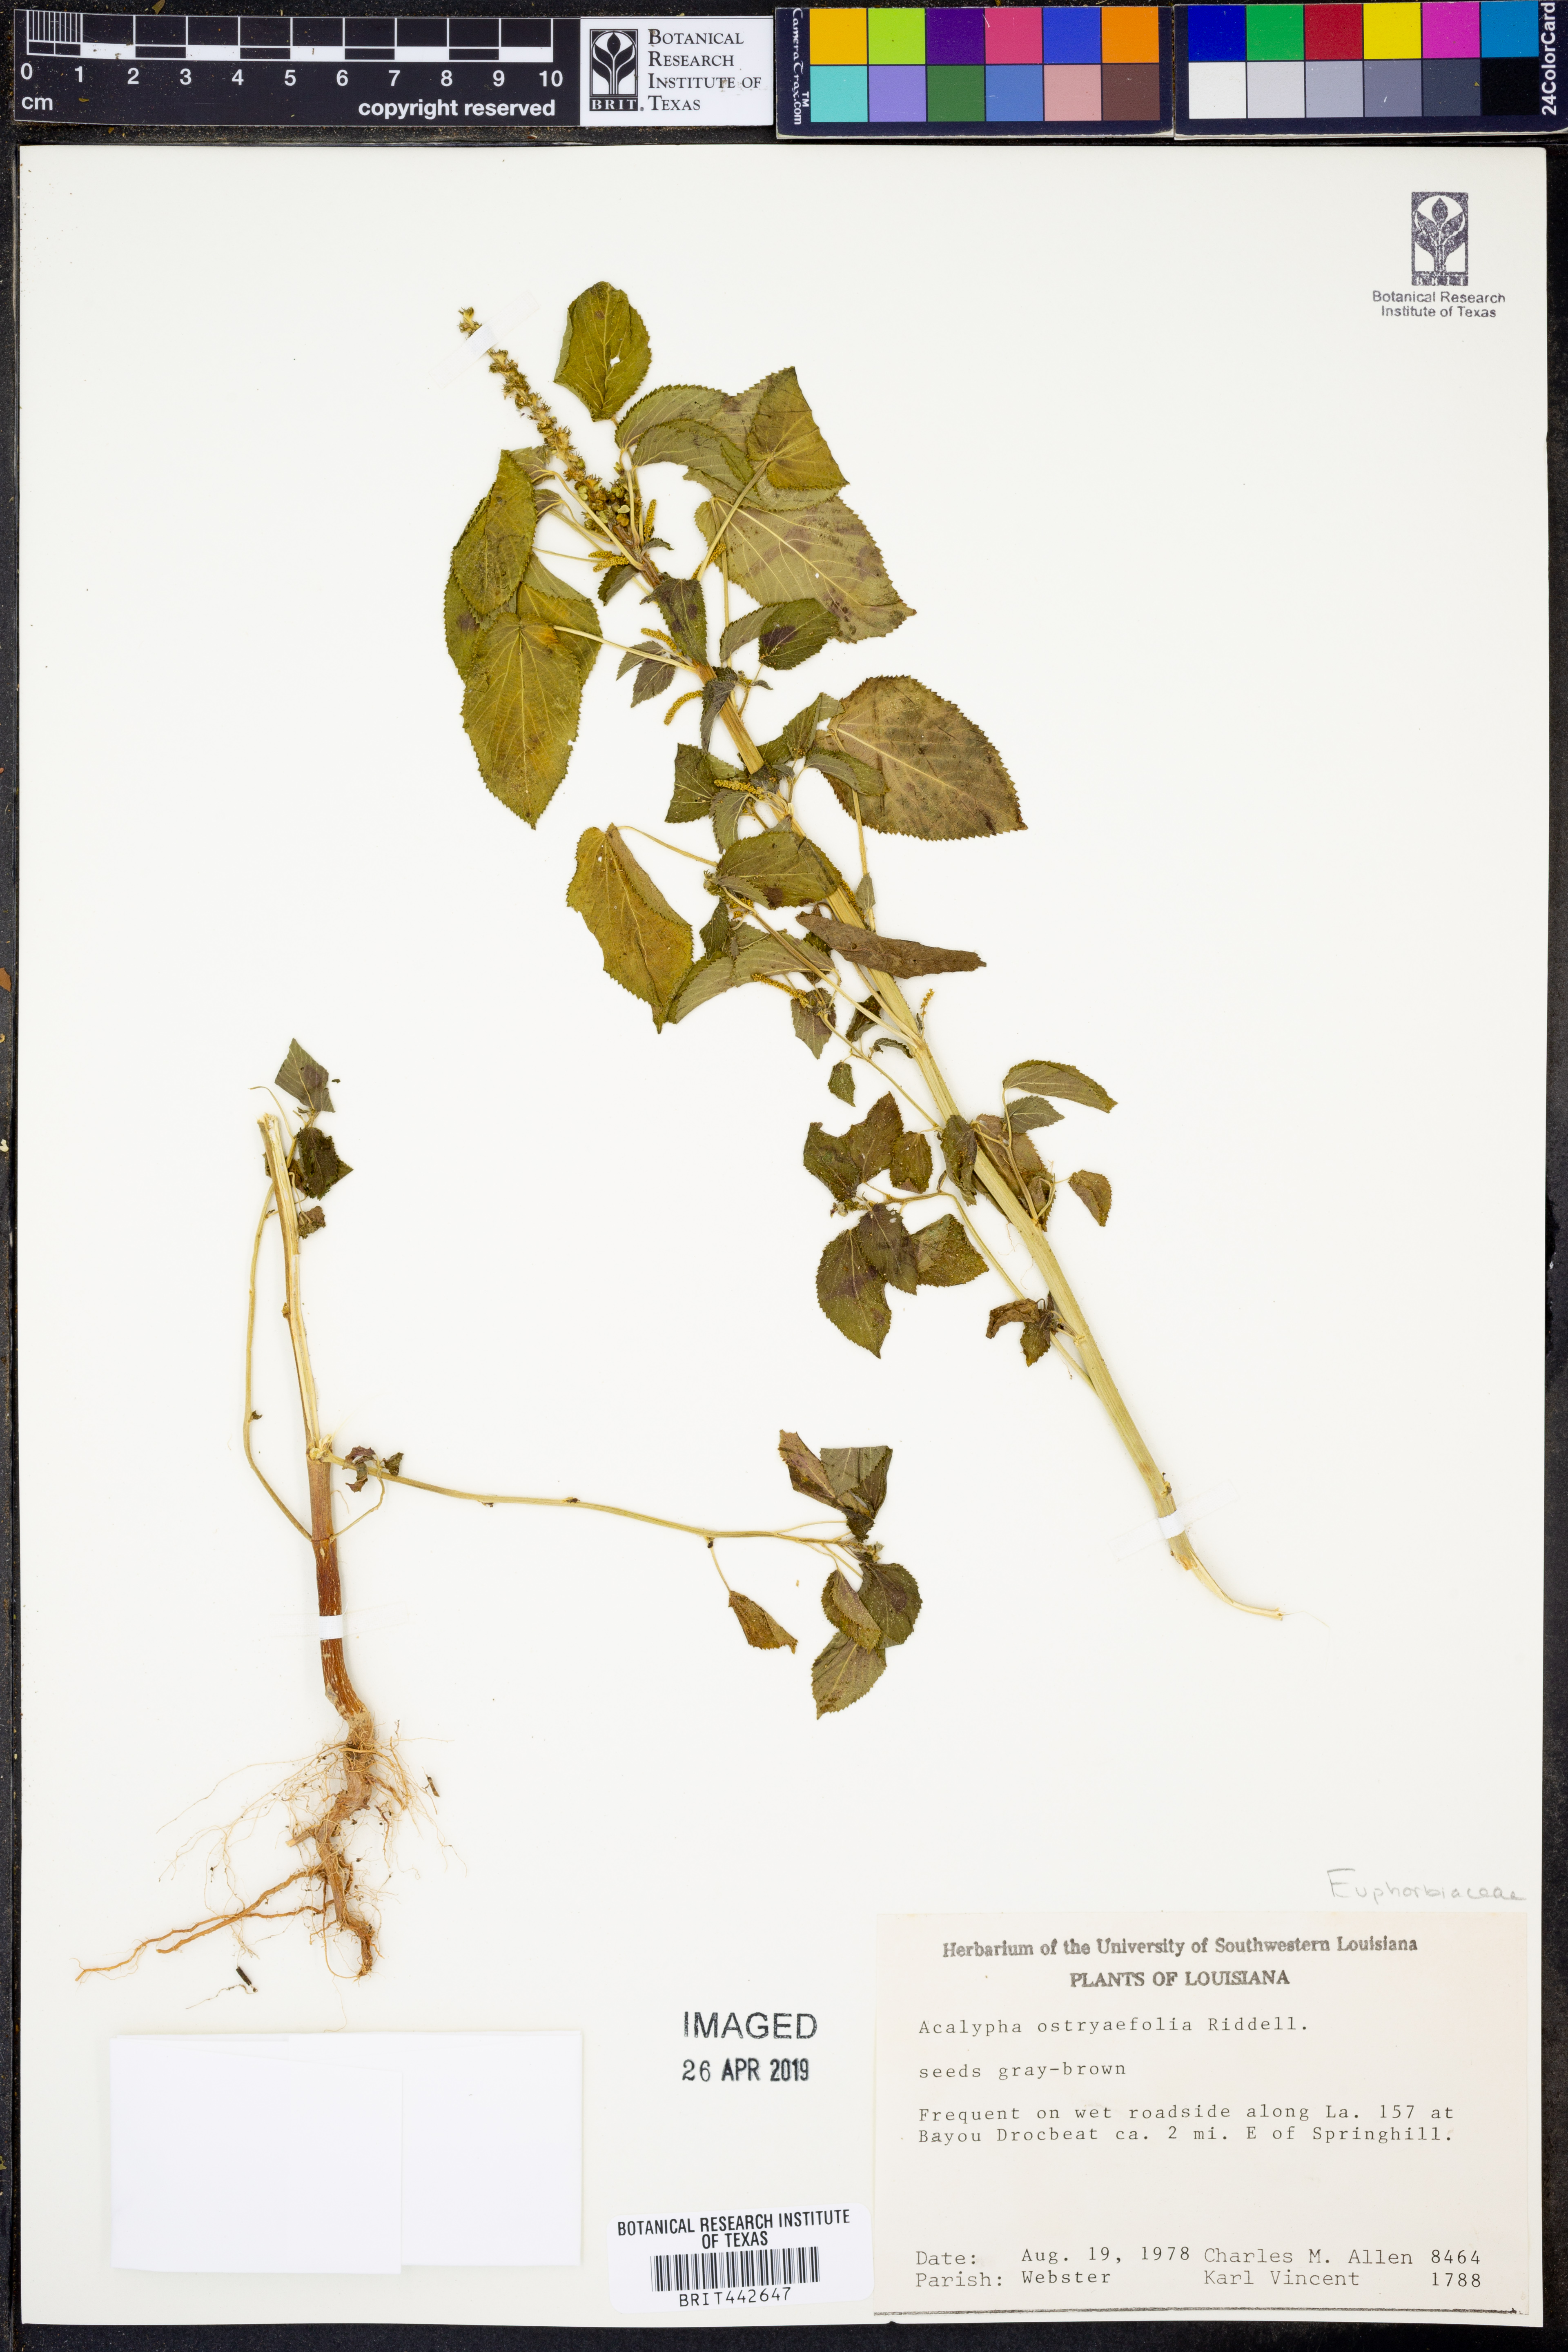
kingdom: Plantae
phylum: Tracheophyta
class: Magnoliopsida
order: Malpighiales
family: Euphorbiaceae
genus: Acalypha
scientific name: Acalypha ostryifolia
